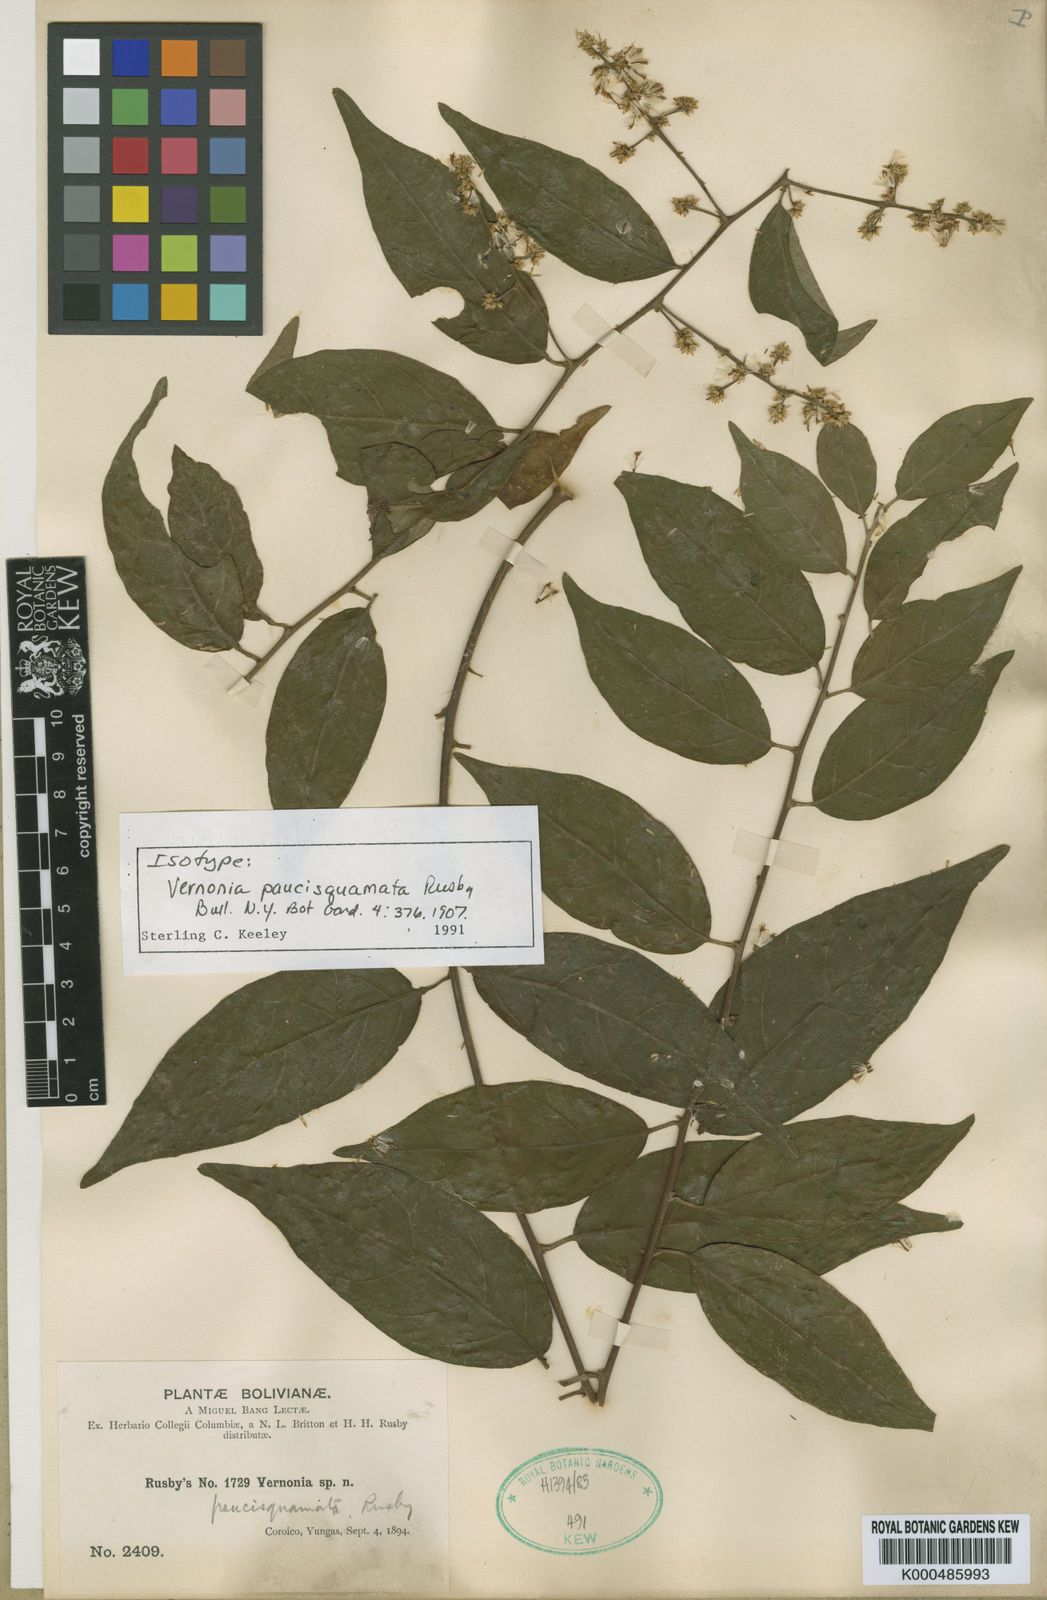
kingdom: Plantae
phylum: Tracheophyta
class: Magnoliopsida
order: Asterales
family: Asteraceae
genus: Critoniopsis
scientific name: Critoniopsis boliviana
